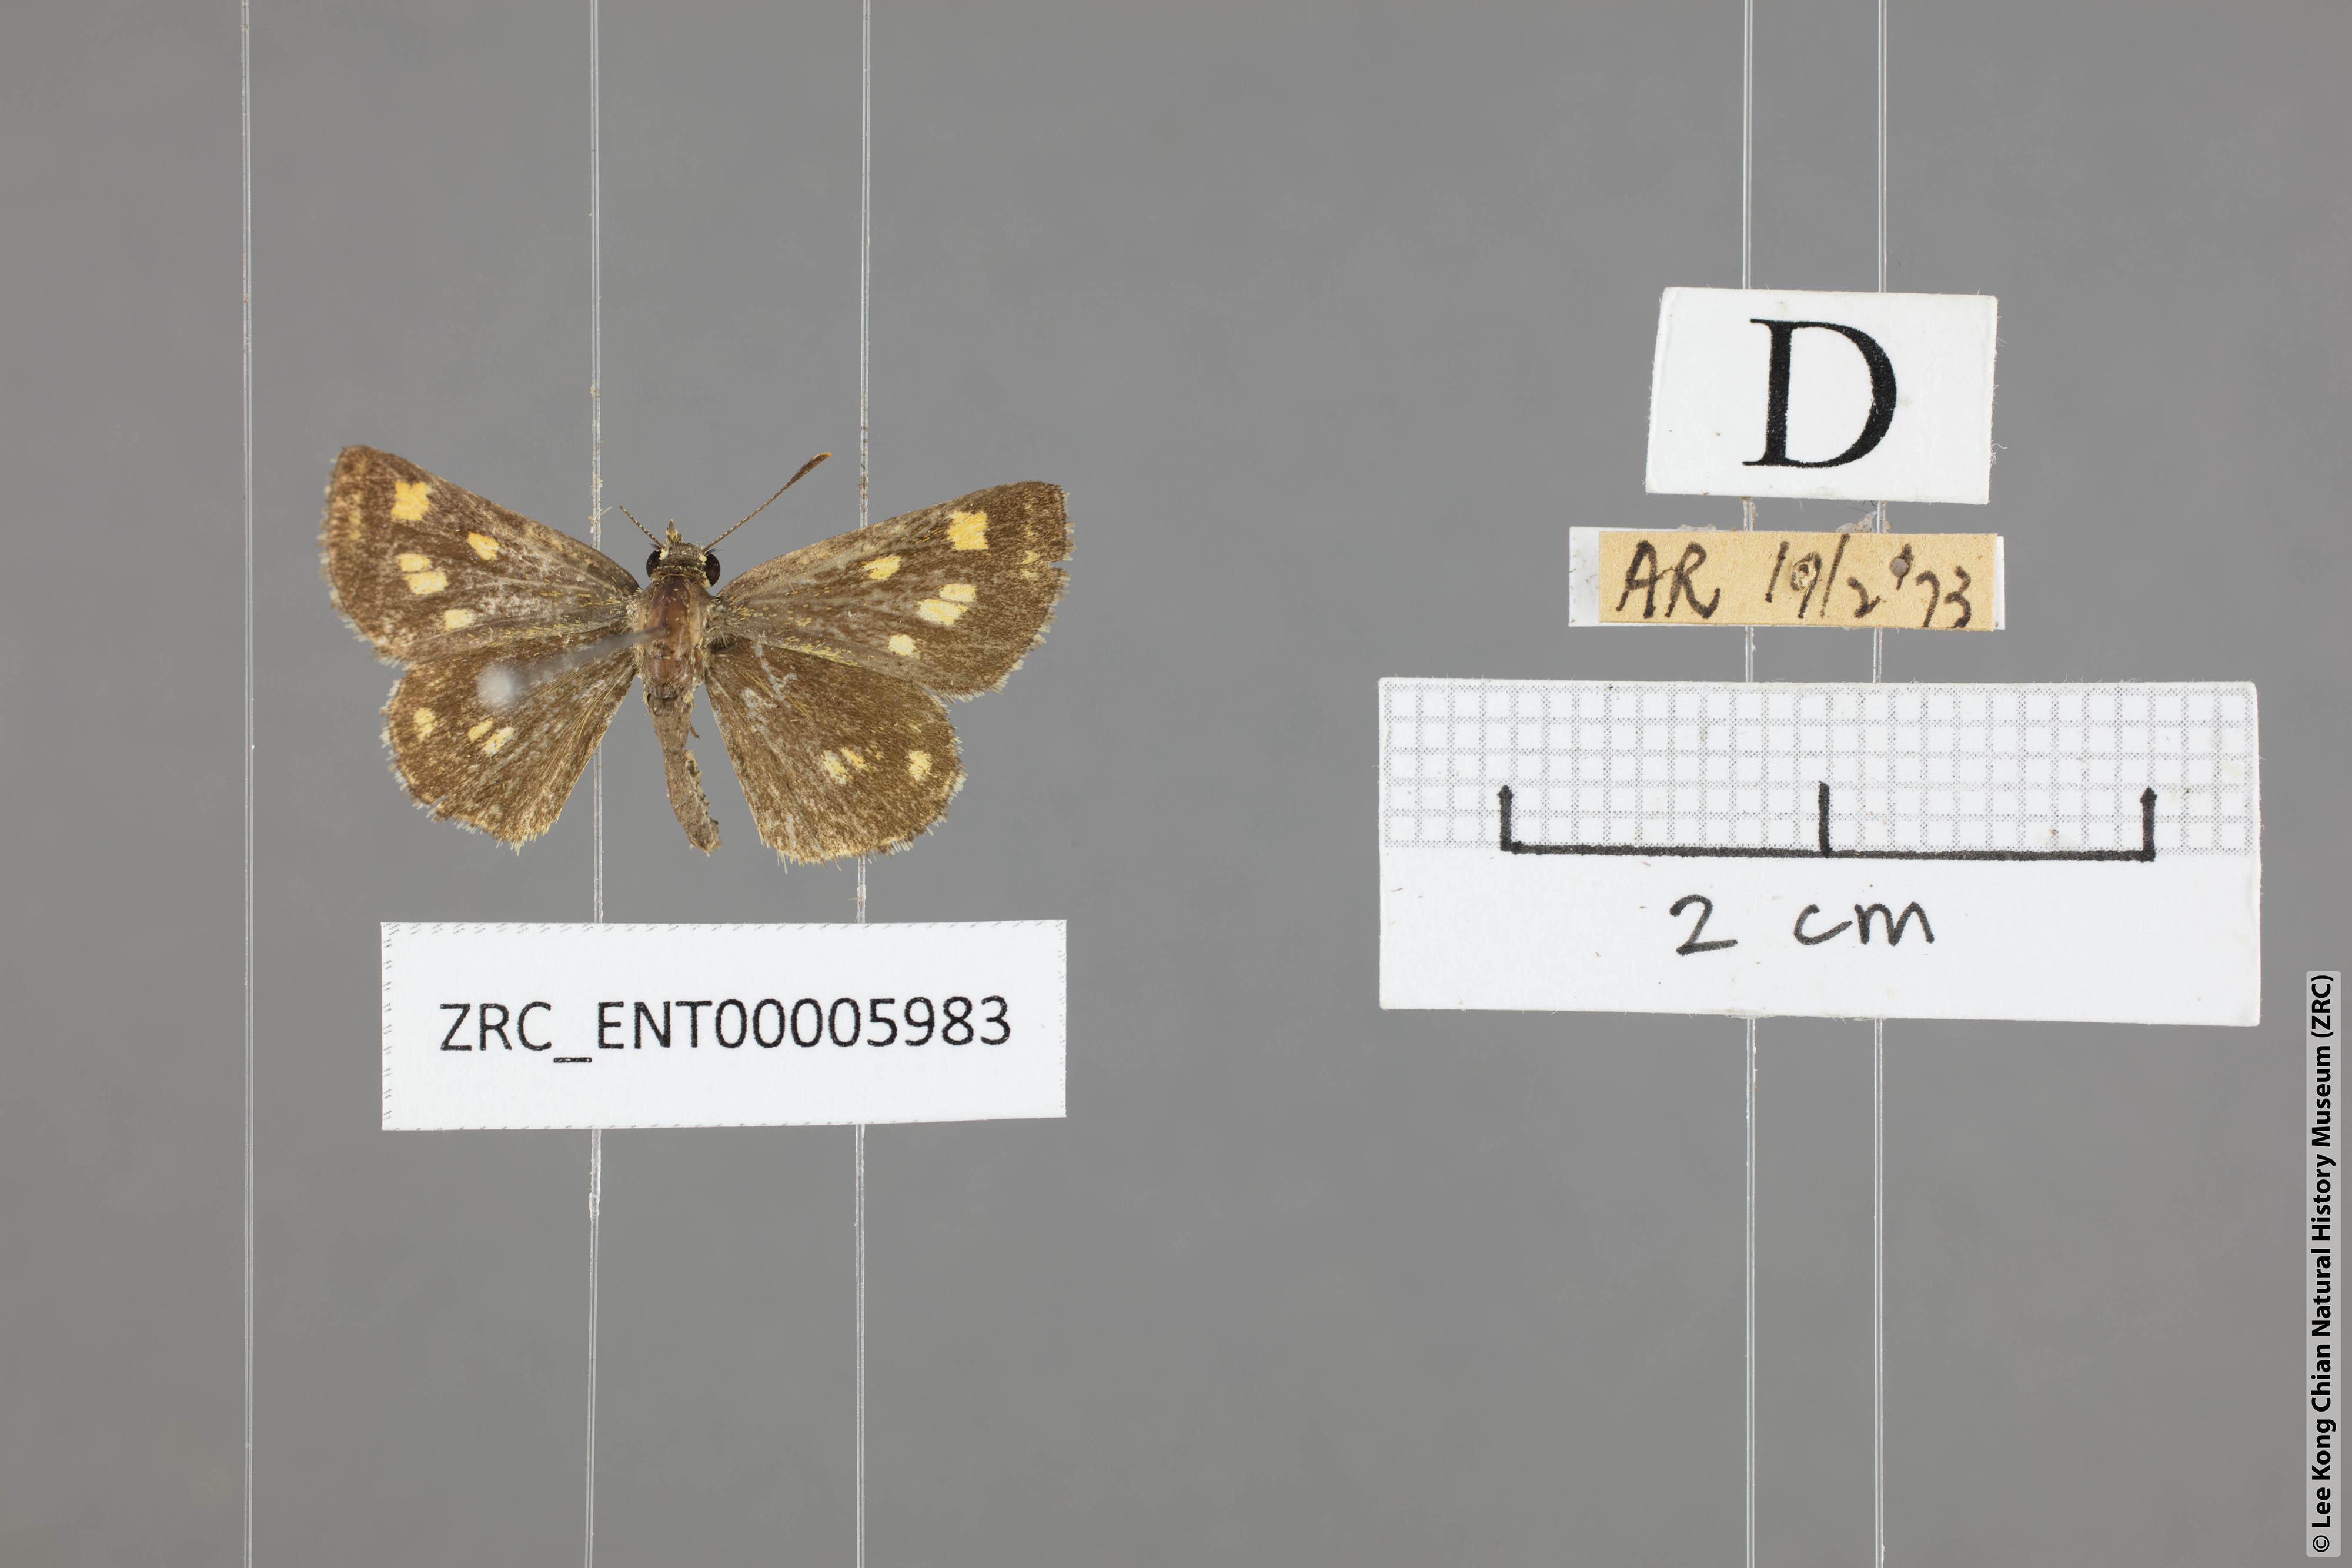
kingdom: Animalia
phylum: Arthropoda
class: Insecta
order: Lepidoptera
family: Hesperiidae
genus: Ampittia
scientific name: Ampittia dioscorides
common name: Common bush hopper
